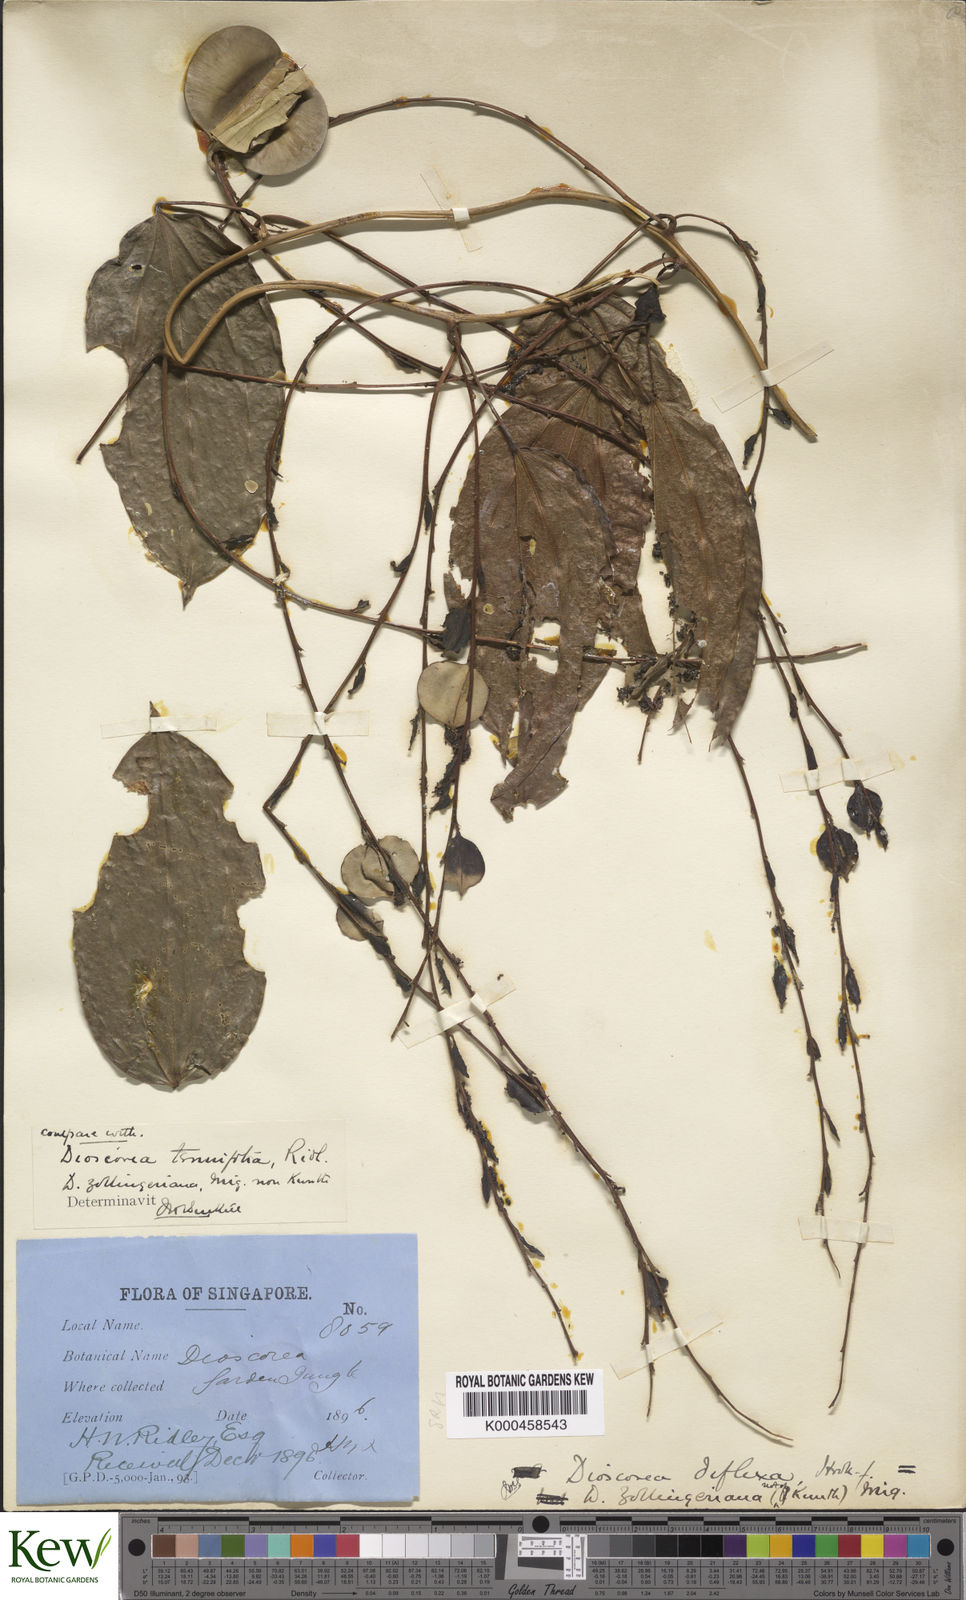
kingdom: Plantae
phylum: Tracheophyta
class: Liliopsida
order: Dioscoreales
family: Dioscoreaceae
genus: Dioscorea
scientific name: Dioscorea tenuifolia
